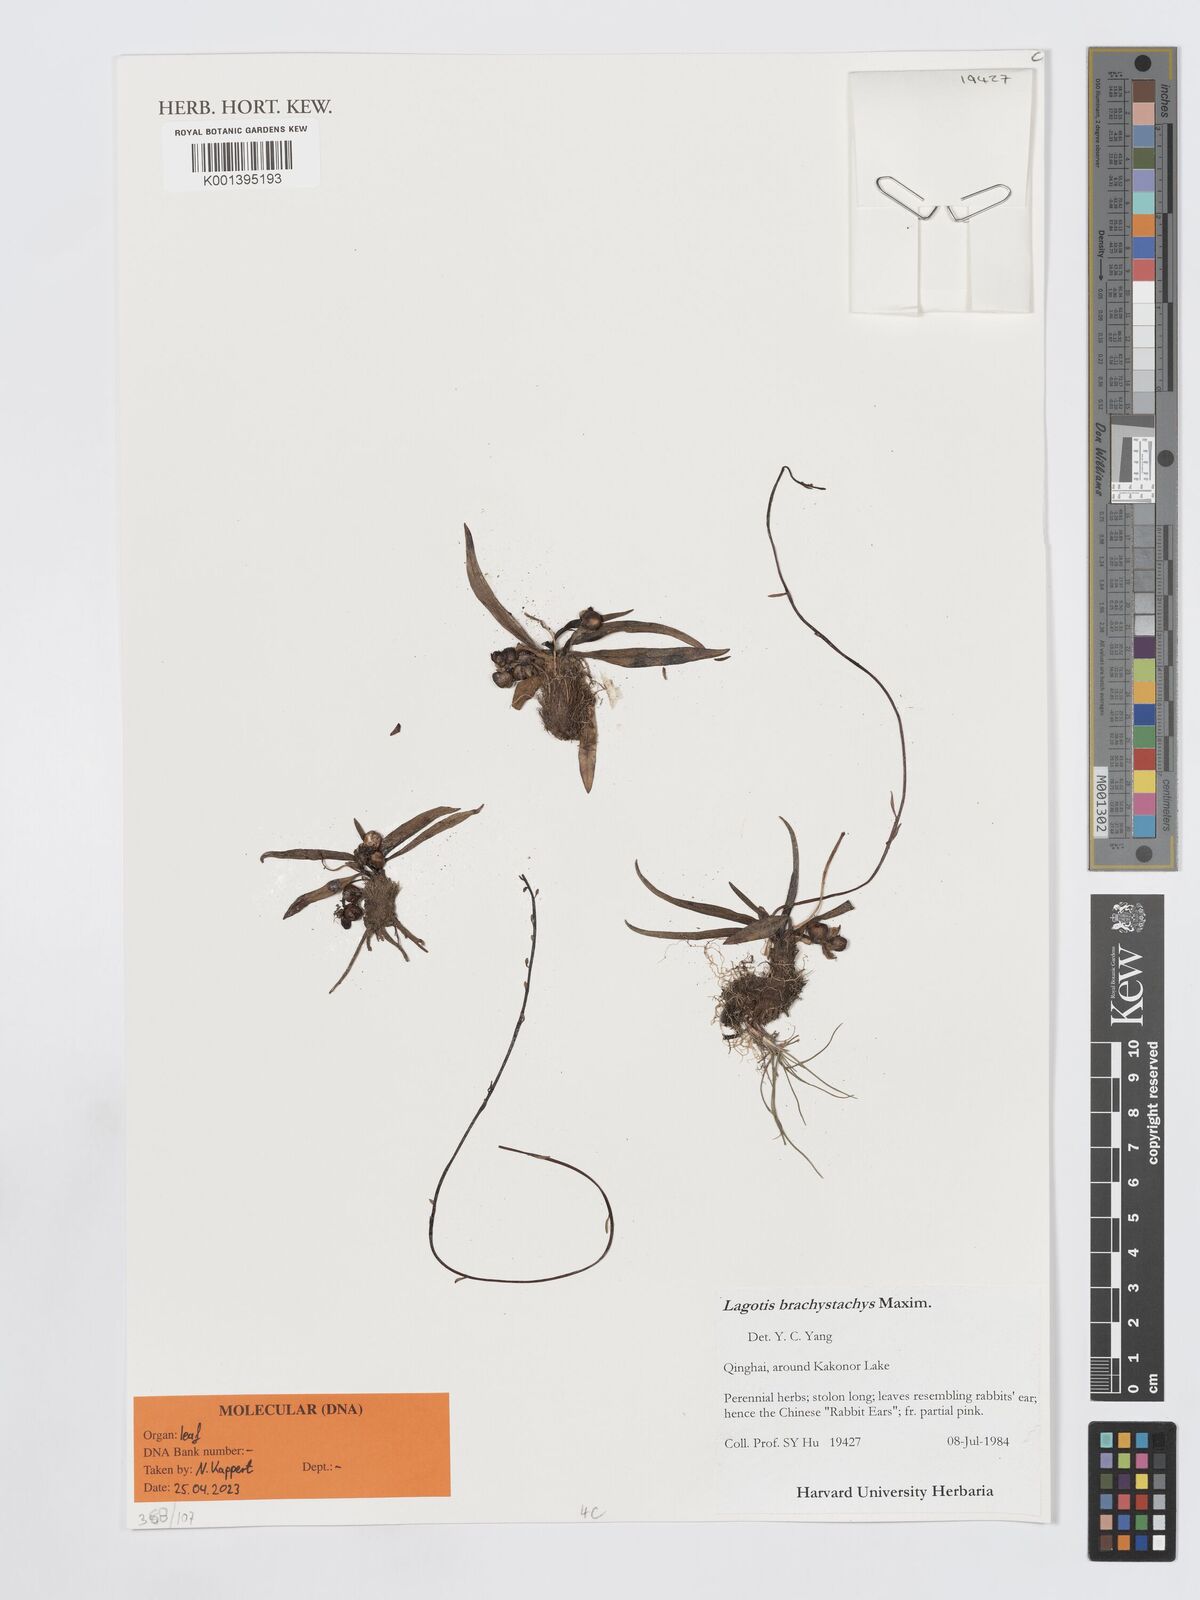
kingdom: Plantae
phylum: Tracheophyta
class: Magnoliopsida
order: Lamiales
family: Plantaginaceae
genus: Lagotis
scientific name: Lagotis
